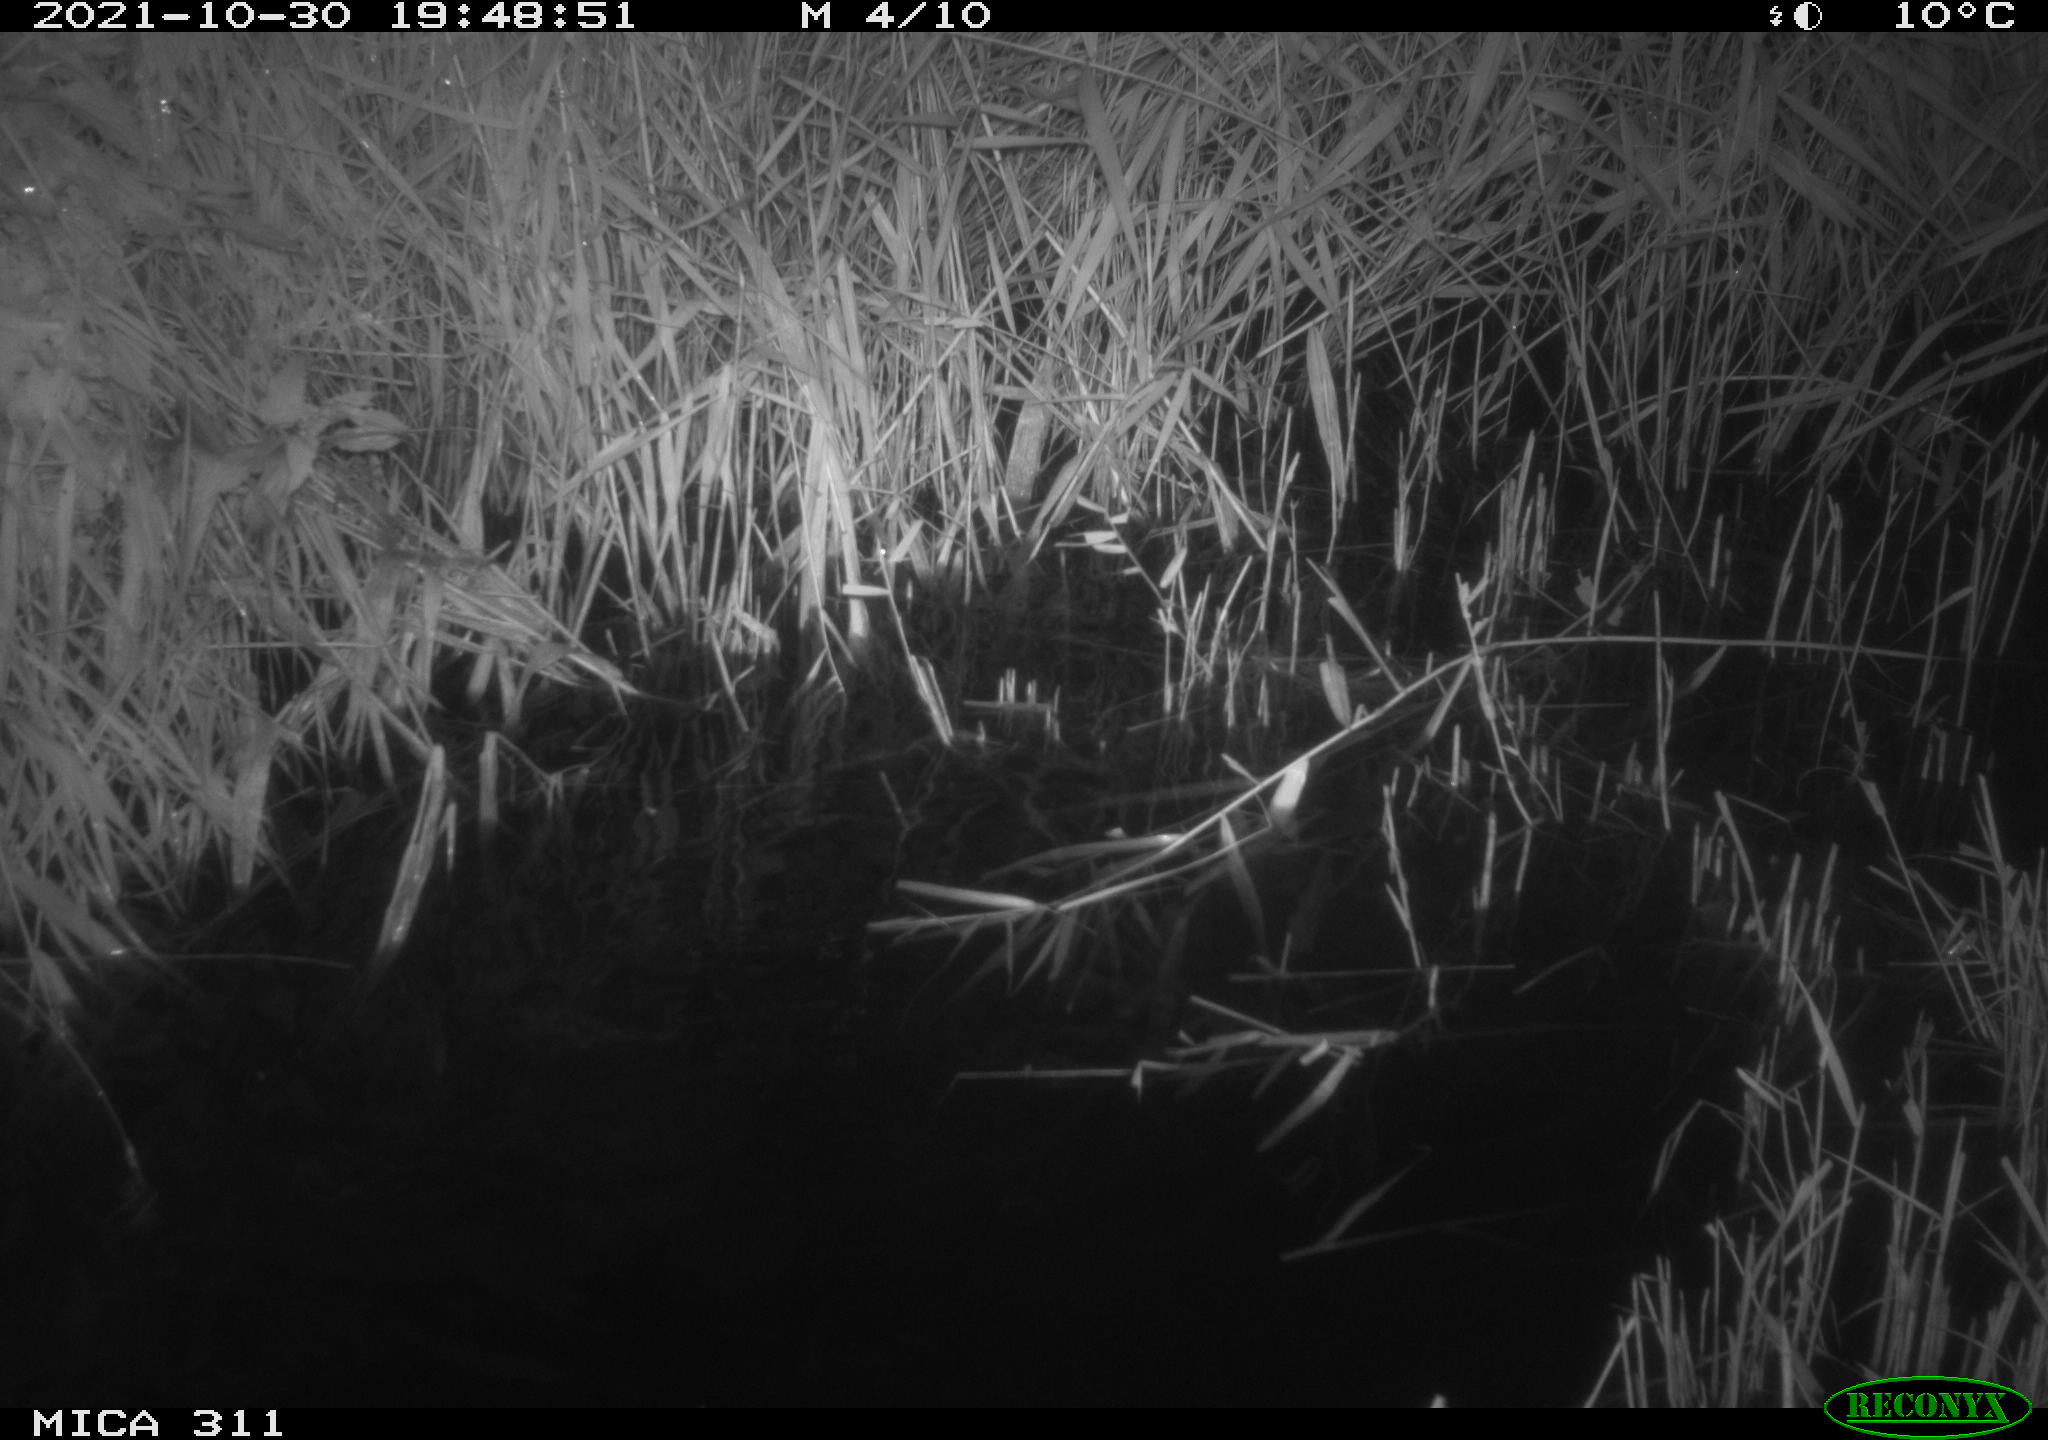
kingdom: Animalia
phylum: Chordata
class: Mammalia
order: Rodentia
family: Muridae
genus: Rattus
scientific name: Rattus norvegicus
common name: Brown rat
